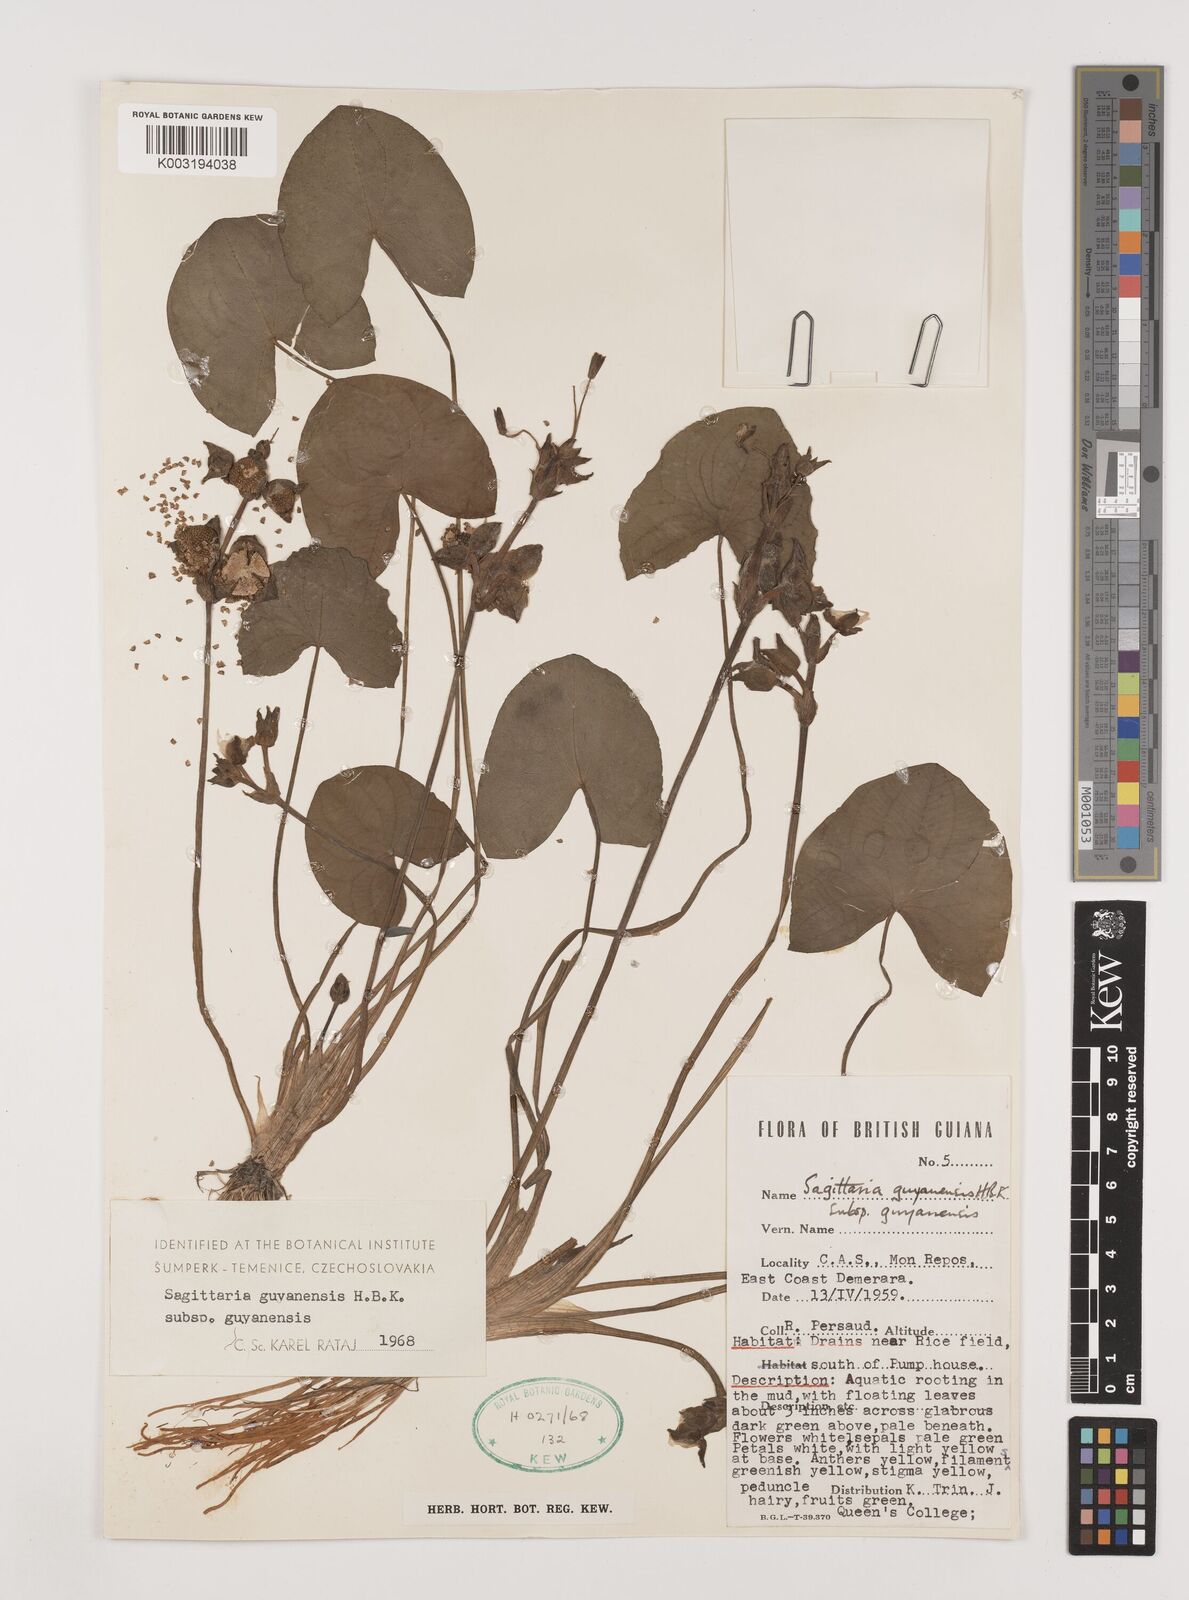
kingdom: Plantae
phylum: Tracheophyta
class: Liliopsida
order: Alismatales
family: Alismataceae
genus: Sagittaria
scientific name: Sagittaria guayanensis
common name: Guyanese arrowhead
